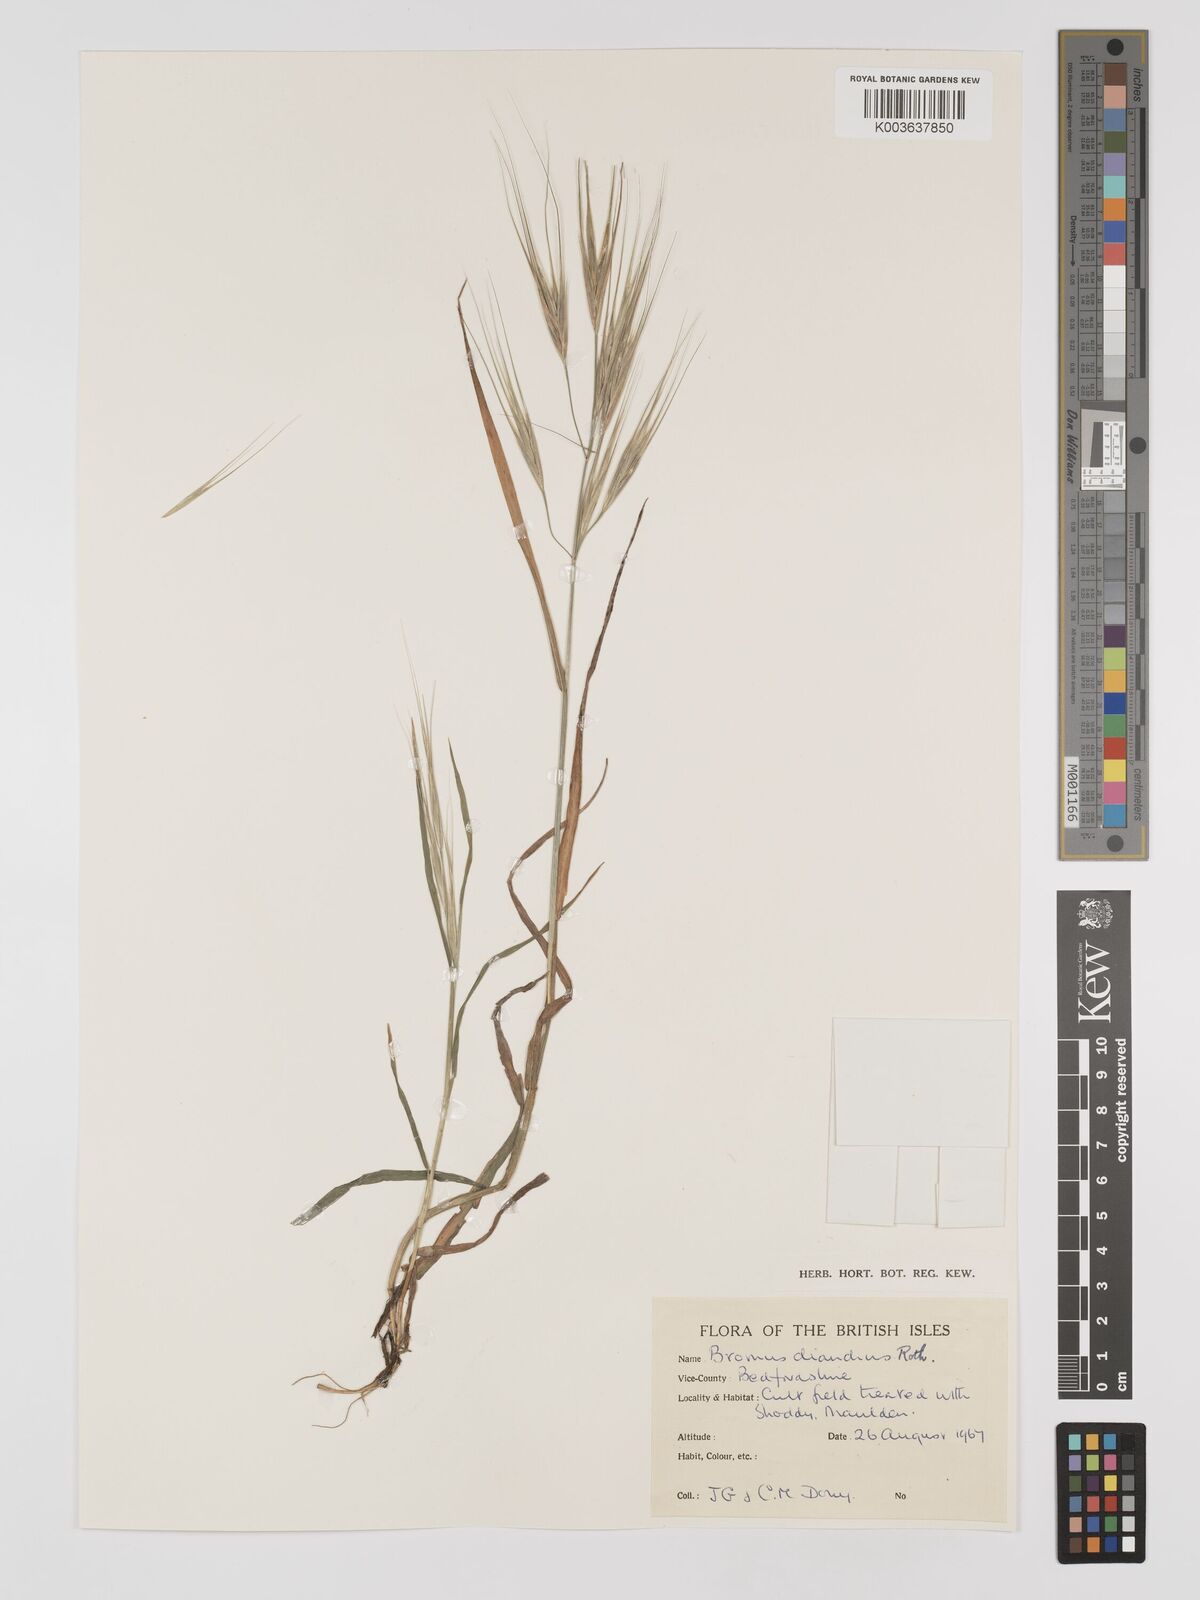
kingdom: Plantae
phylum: Tracheophyta
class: Liliopsida
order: Poales
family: Poaceae
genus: Bromus
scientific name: Bromus
